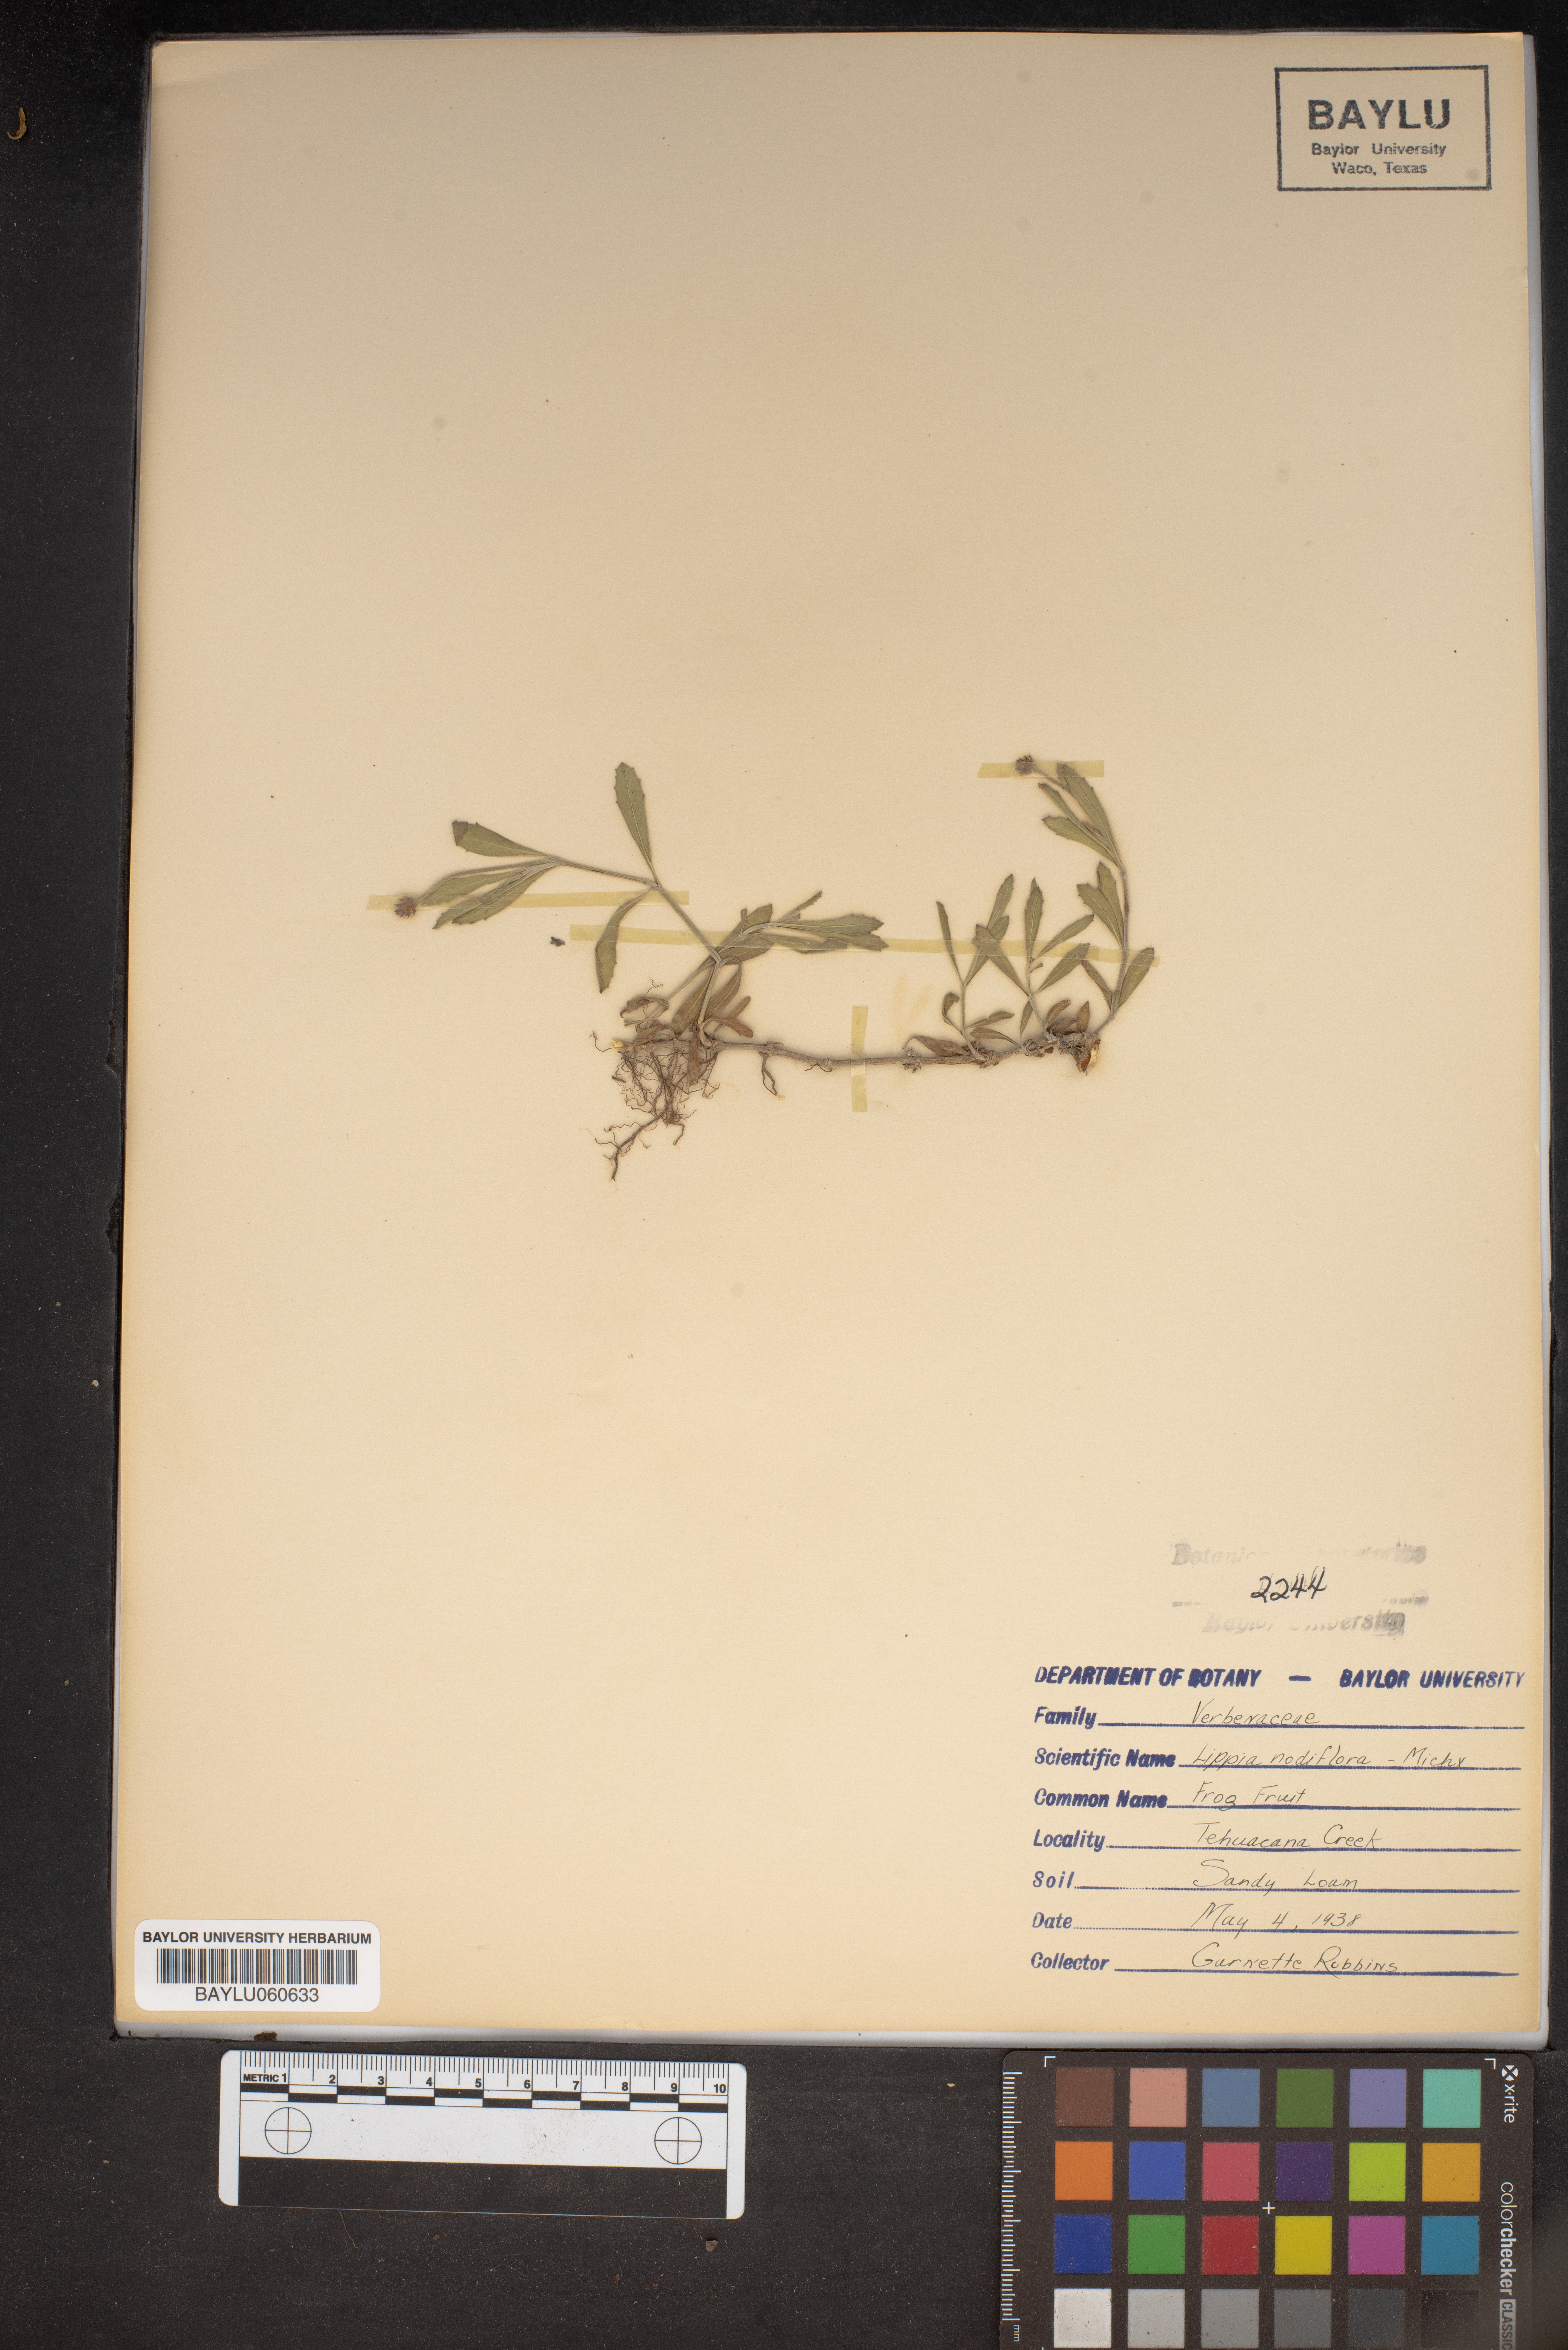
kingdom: Plantae
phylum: Tracheophyta
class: Magnoliopsida
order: Lamiales
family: Verbenaceae
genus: Phyla
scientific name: Phyla nodiflora
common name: Frogfruit
